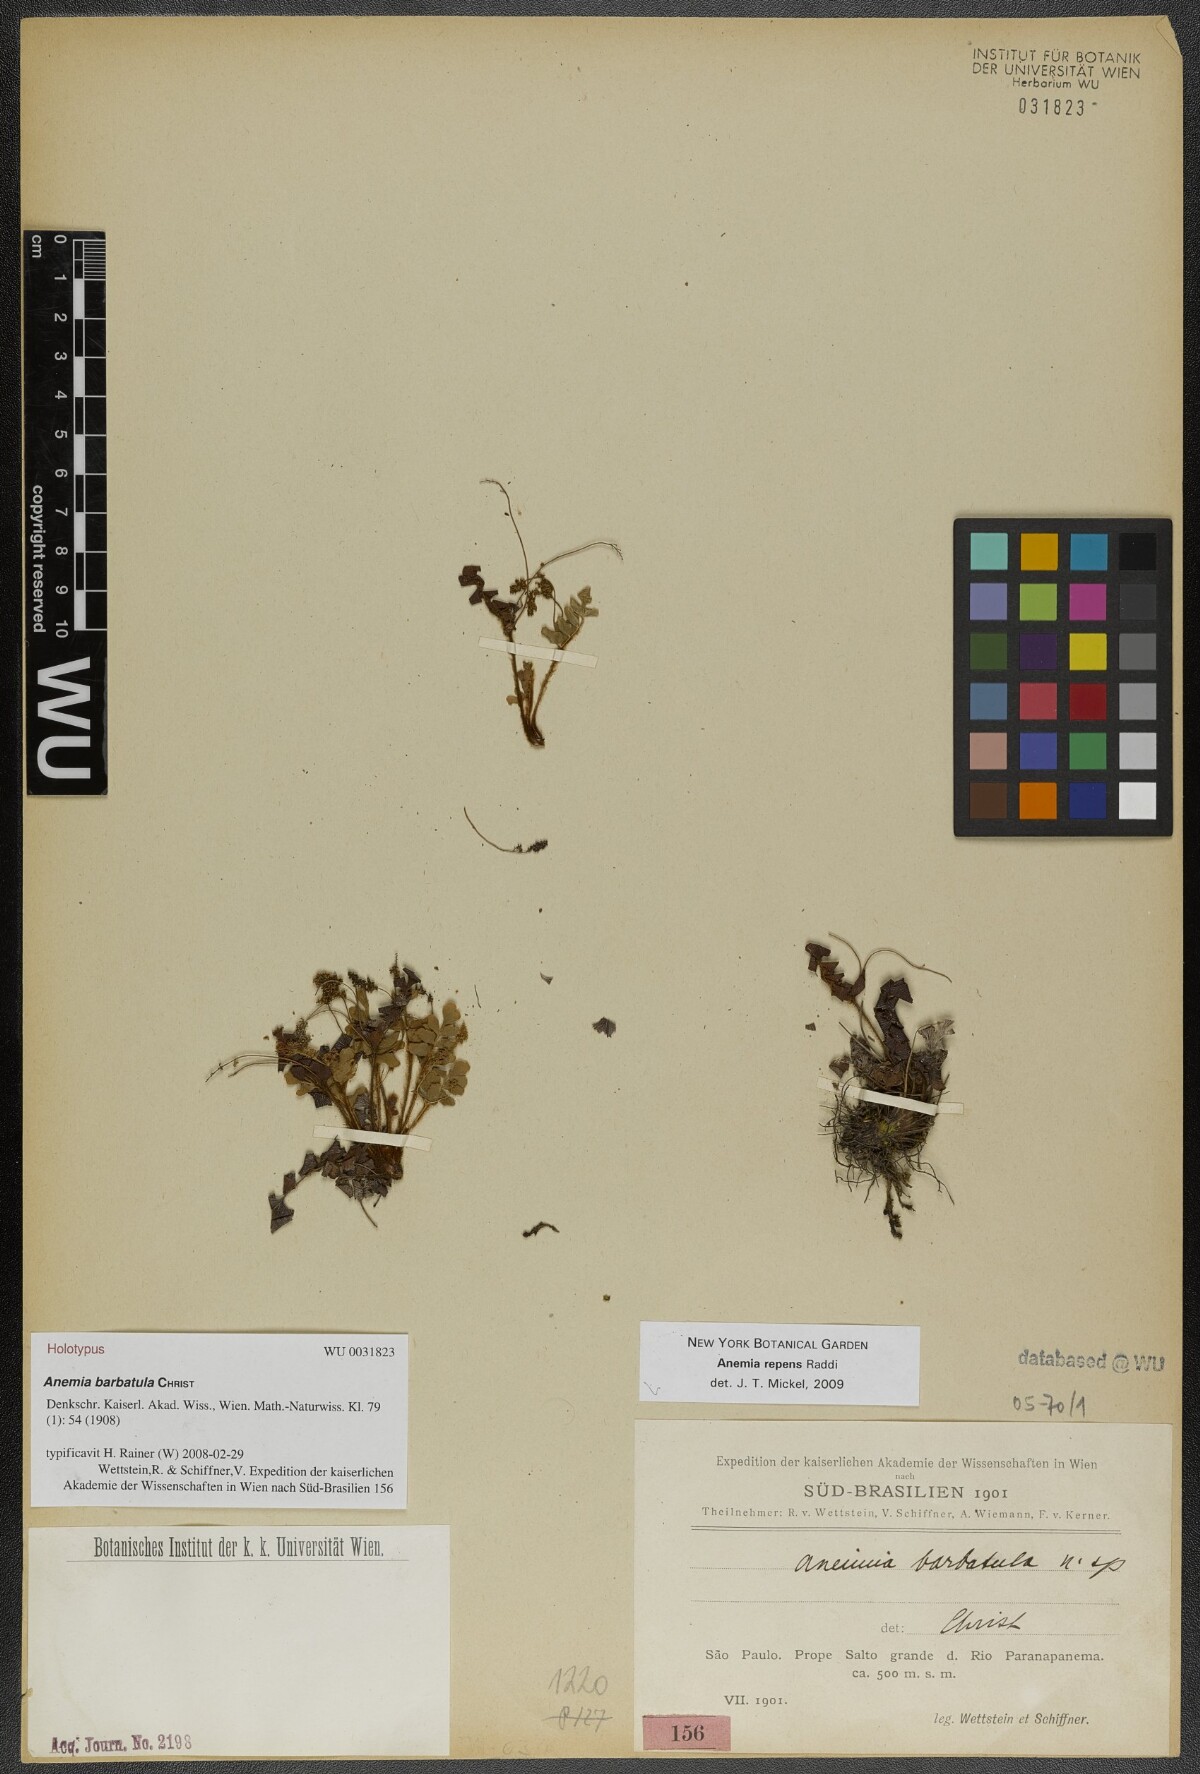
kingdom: Plantae
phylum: Tracheophyta
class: Polypodiopsida
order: Schizaeales
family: Anemiaceae
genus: Anemia
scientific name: Anemia barbatula
